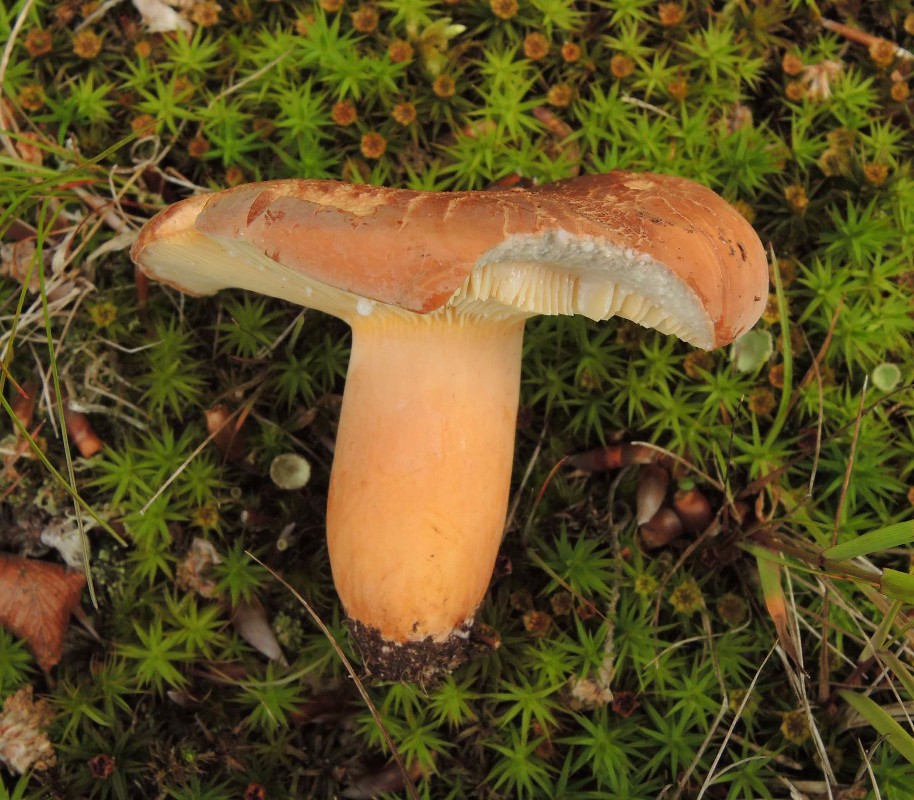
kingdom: Fungi
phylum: Basidiomycota
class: Agaricomycetes
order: Russulales
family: Russulaceae
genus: Lactifluus
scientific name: Lactifluus volemus
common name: spiselig mælkehat
